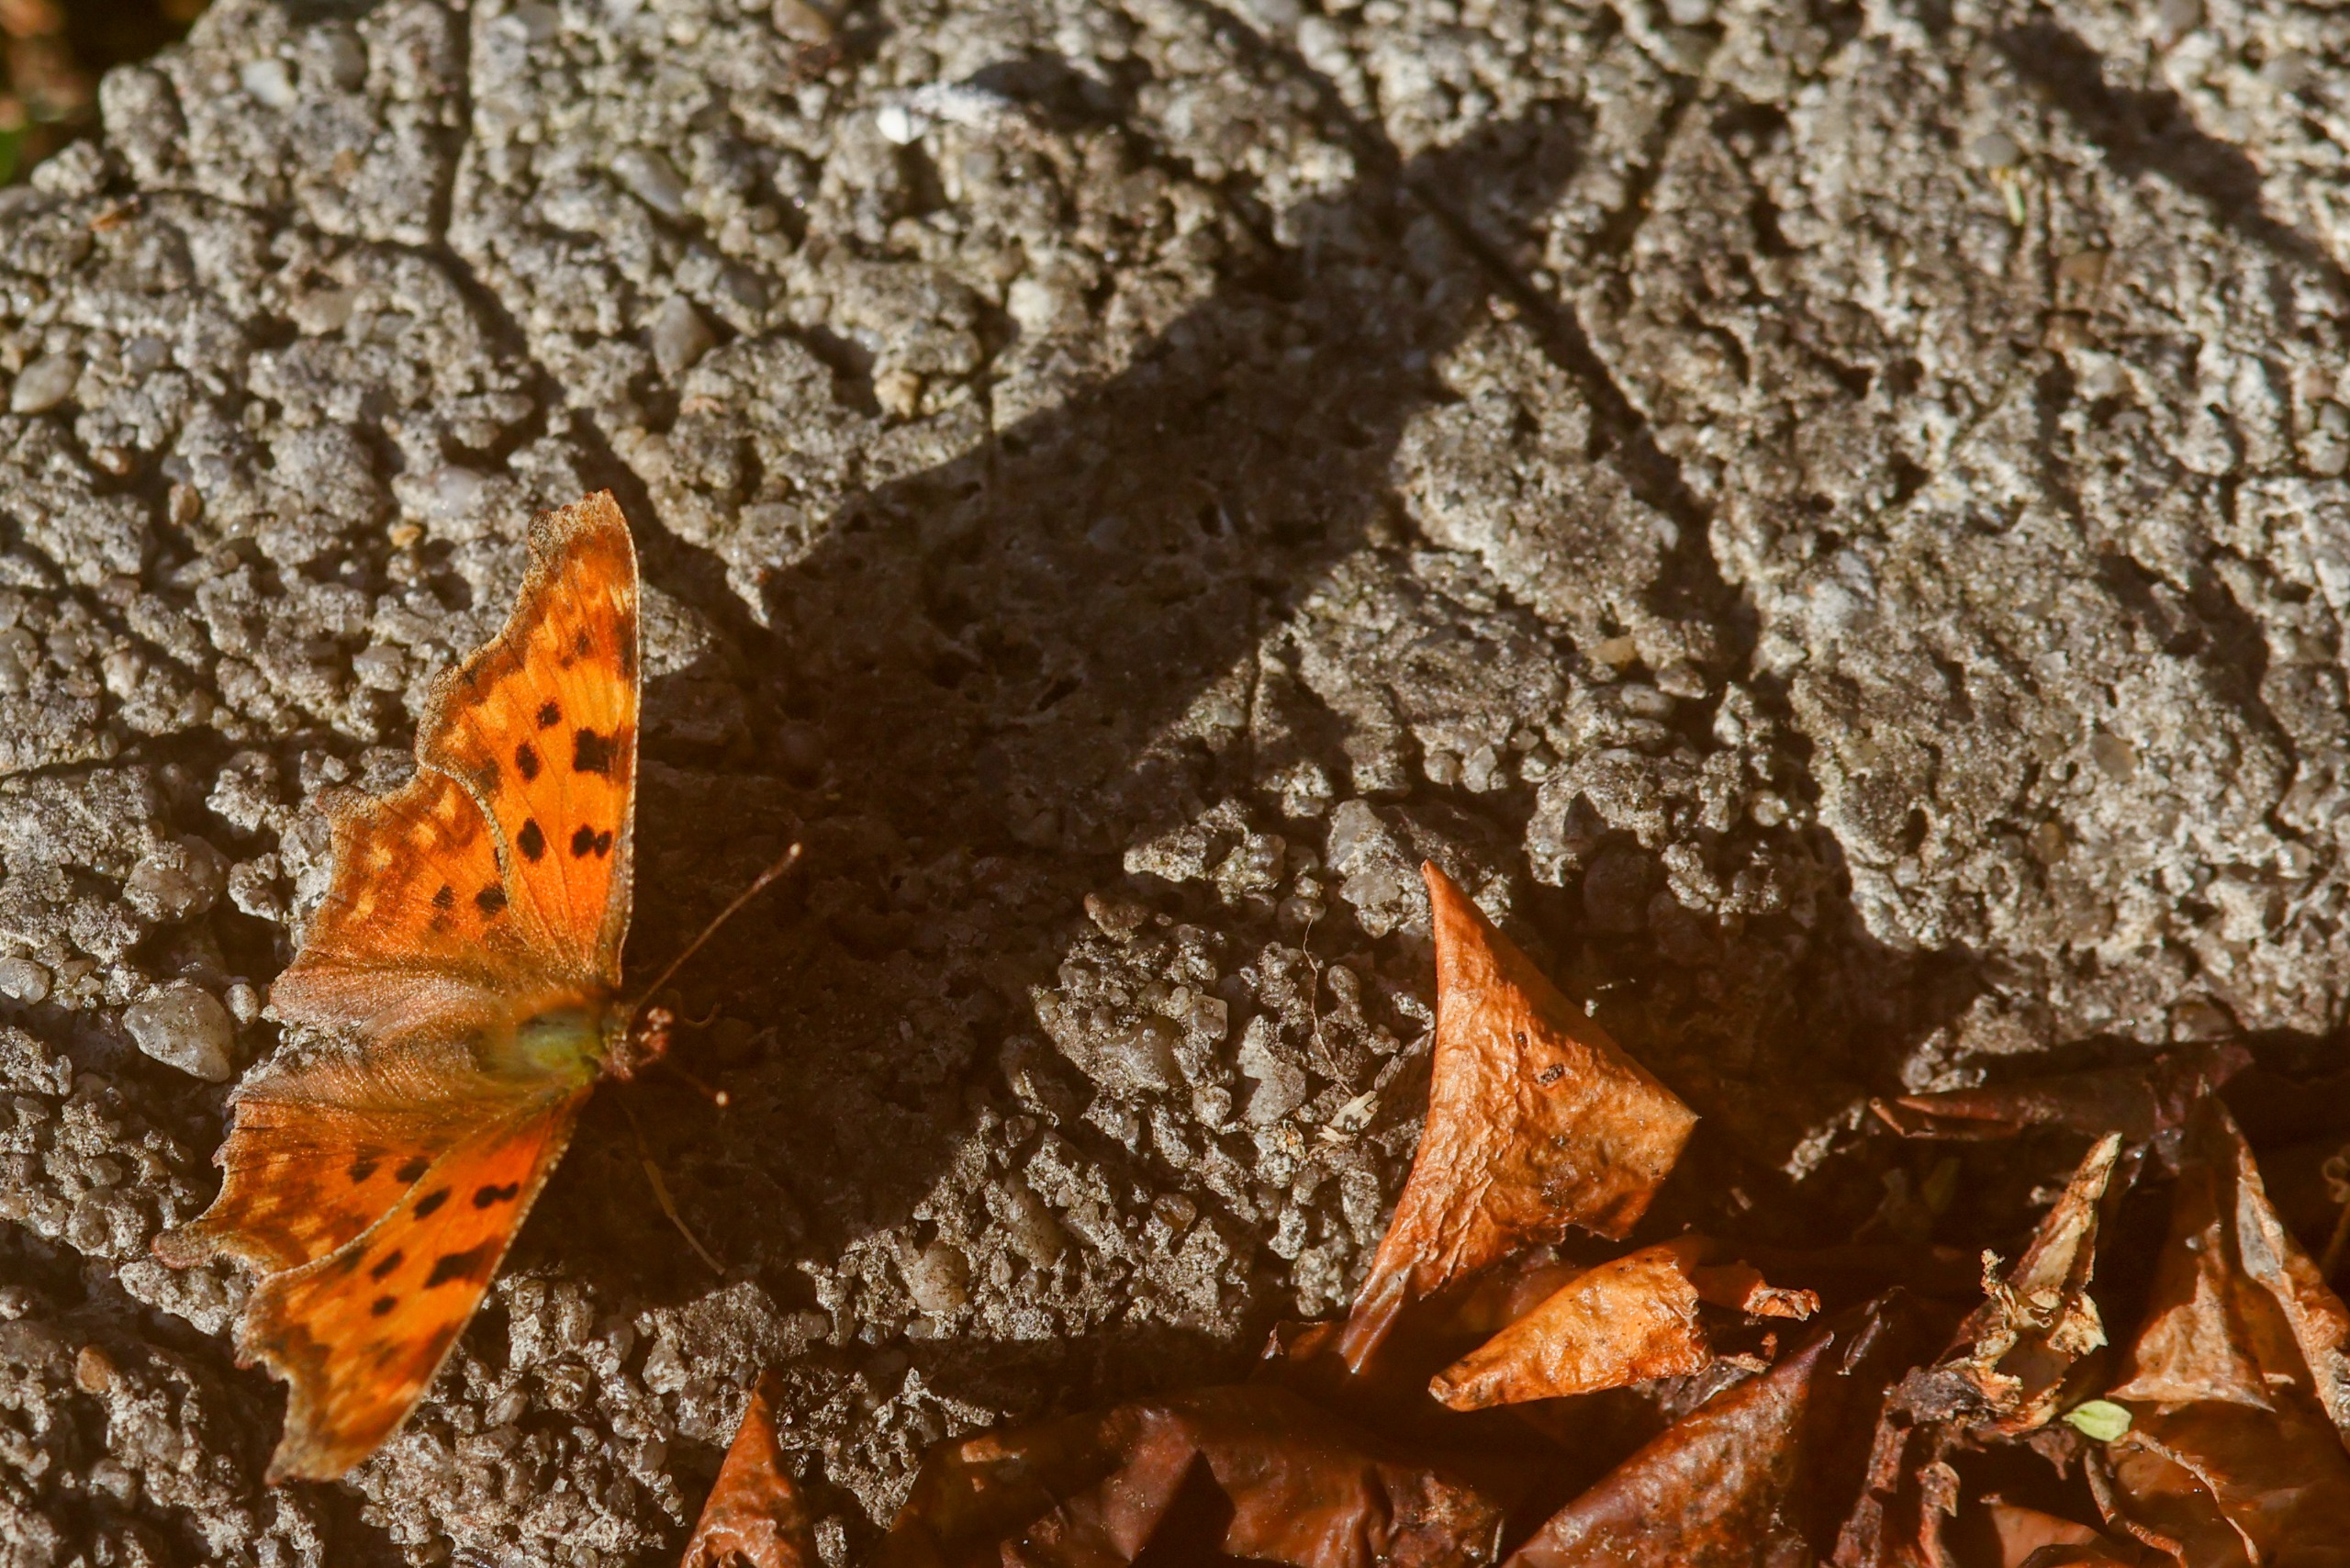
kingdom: Animalia
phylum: Arthropoda
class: Insecta
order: Lepidoptera
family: Nymphalidae
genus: Polygonia
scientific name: Polygonia c-album
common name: Det hvide C
